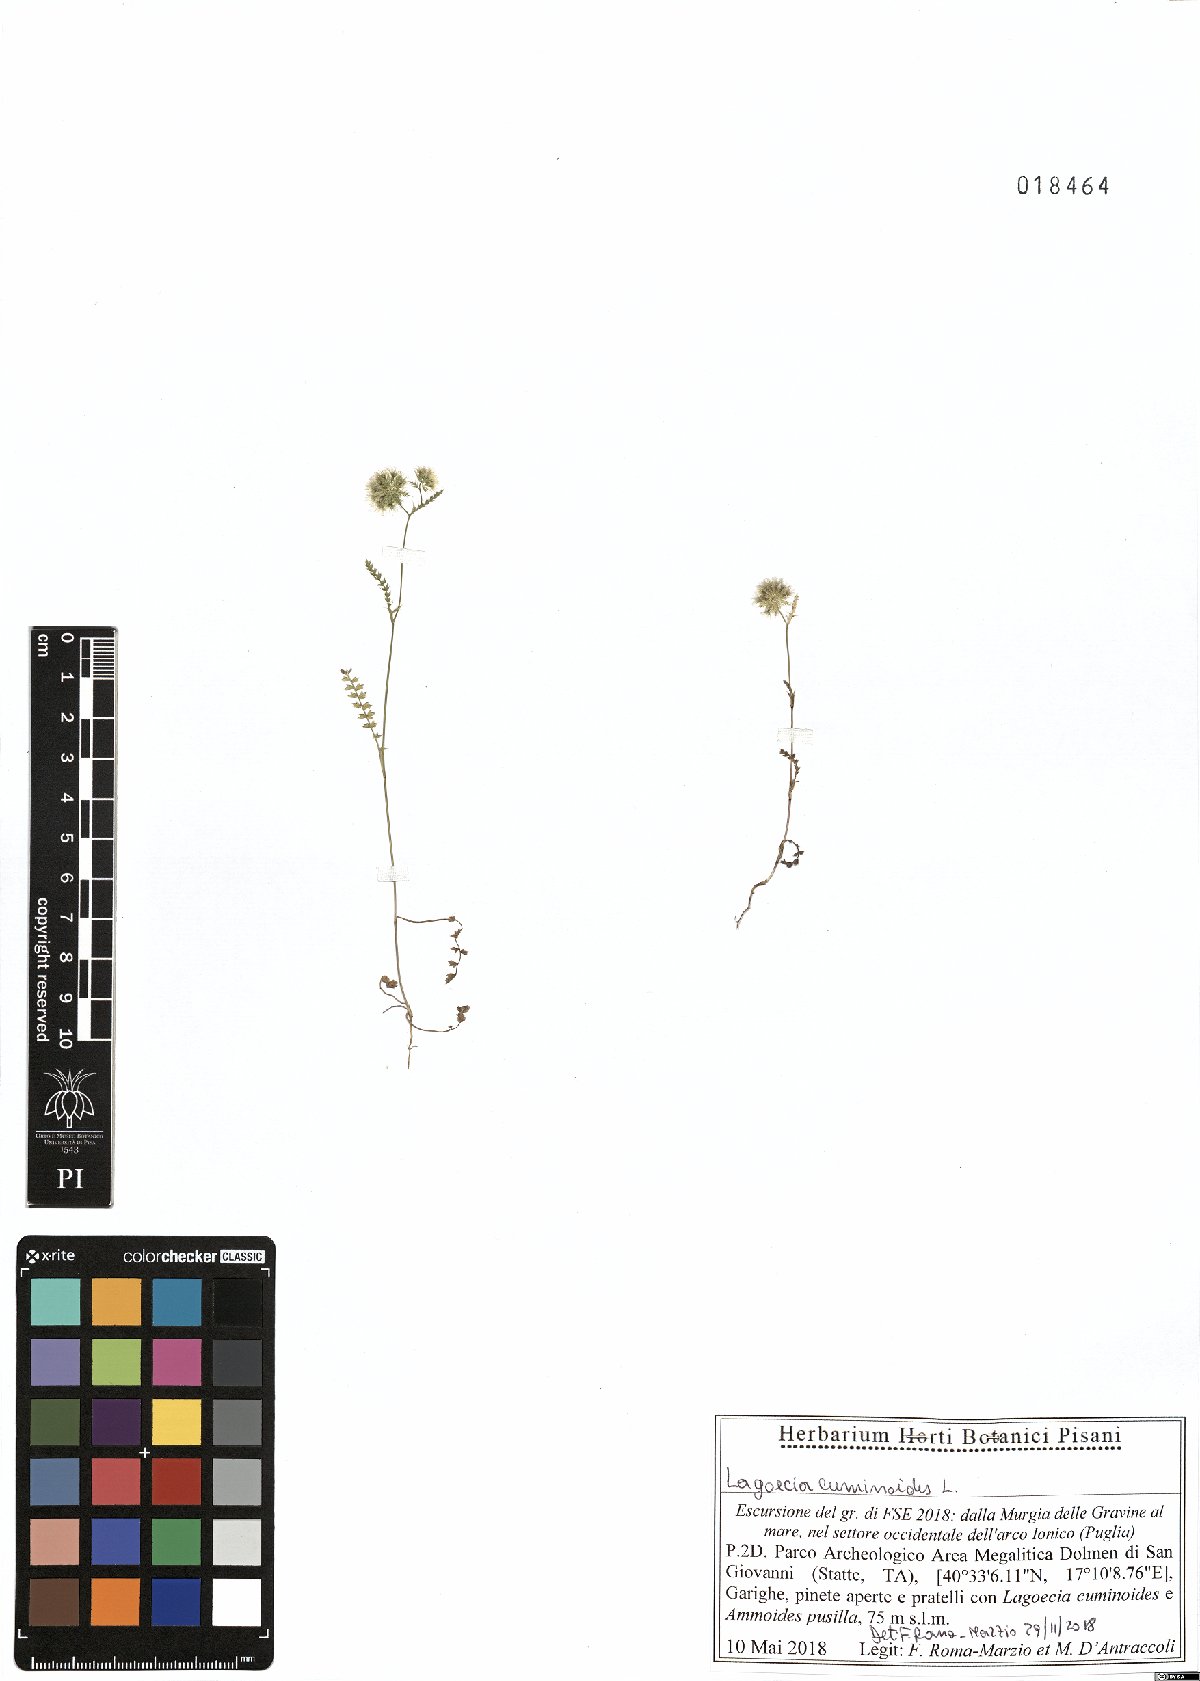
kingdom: Plantae
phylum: Tracheophyta
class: Magnoliopsida
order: Apiales
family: Apiaceae
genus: Lagoecia
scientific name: Lagoecia cuminoides
